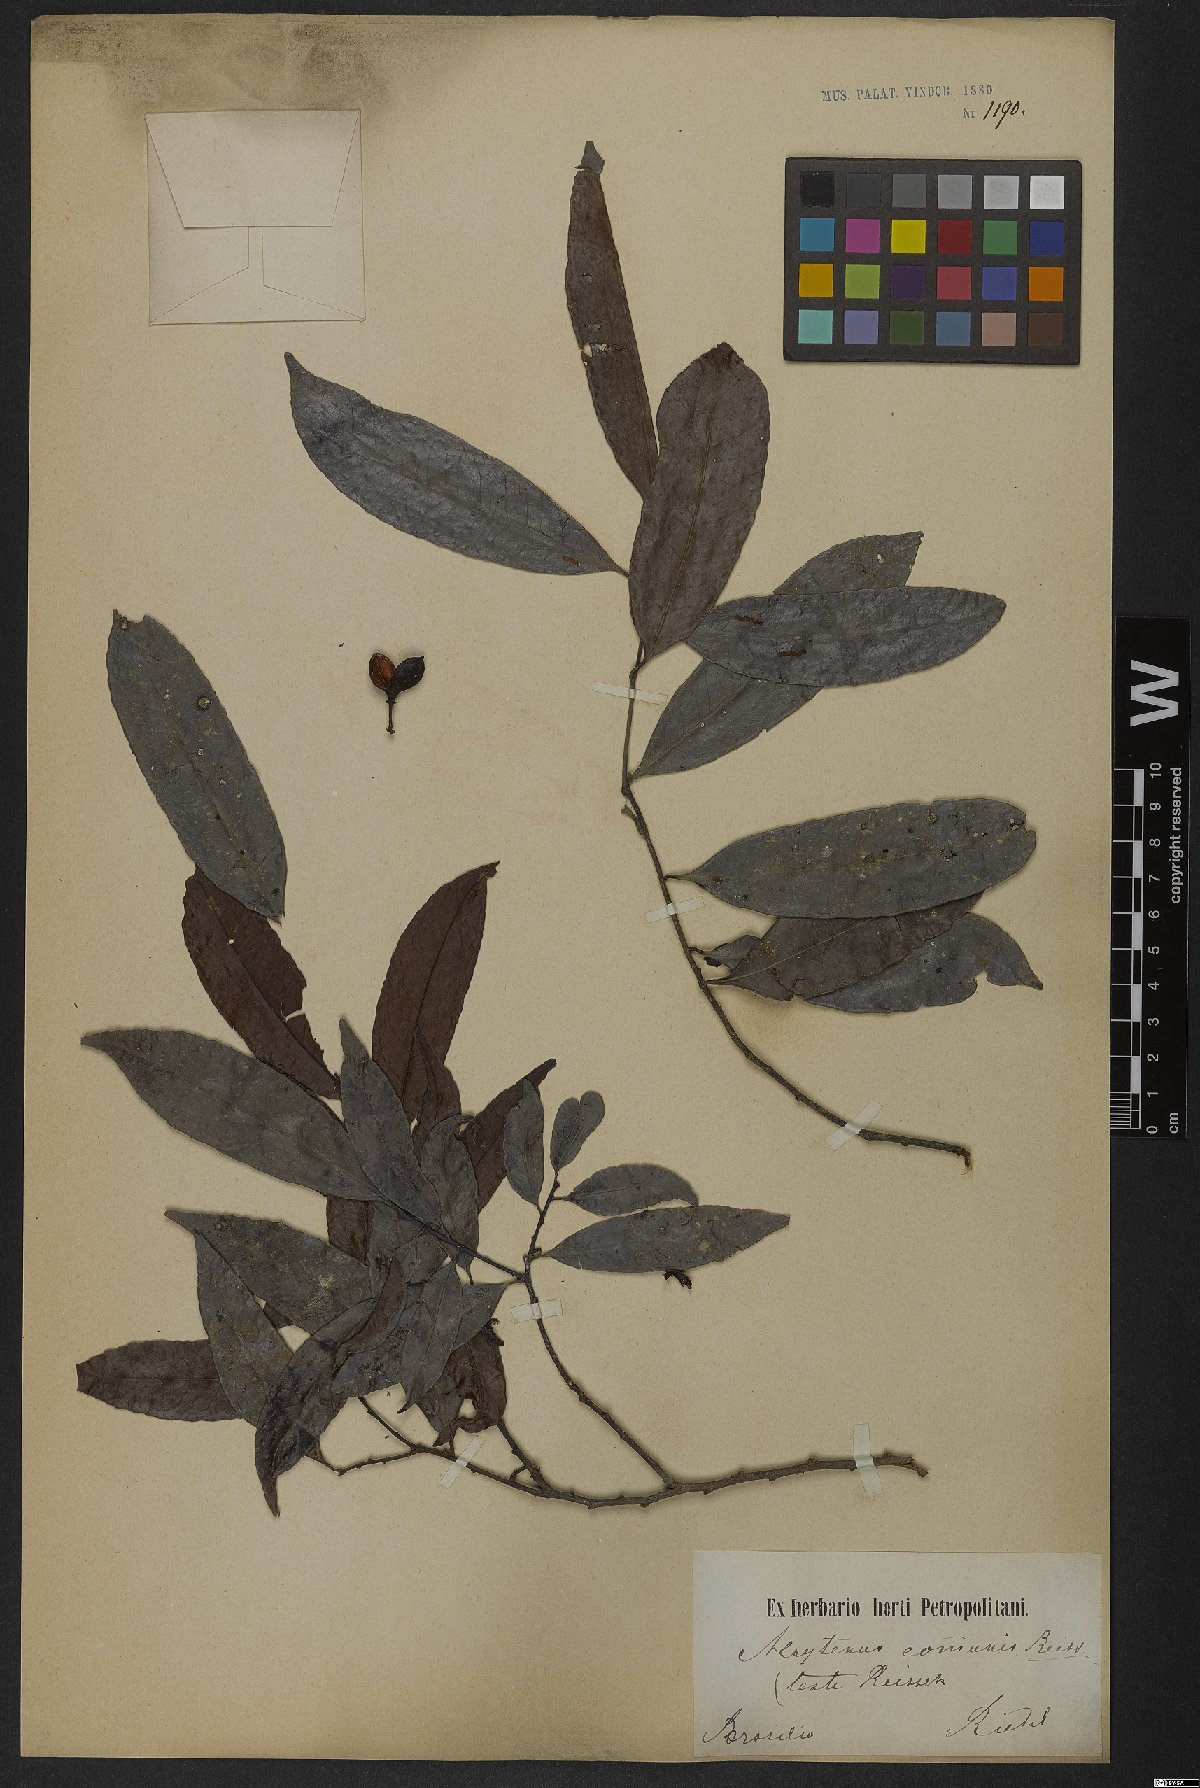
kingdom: Plantae
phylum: Tracheophyta
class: Magnoliopsida
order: Celastrales
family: Celastraceae
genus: Monteverdia
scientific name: Monteverdia communis
